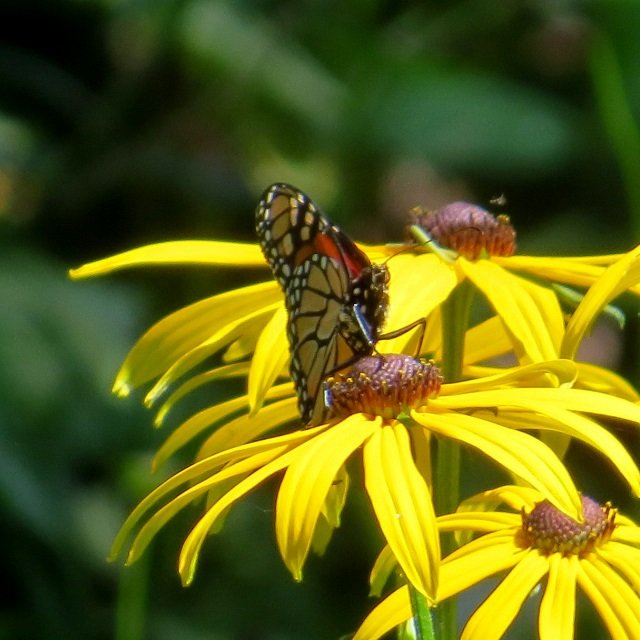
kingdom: Animalia
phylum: Arthropoda
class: Insecta
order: Lepidoptera
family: Nymphalidae
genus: Danaus
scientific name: Danaus plexippus
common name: Monarch
